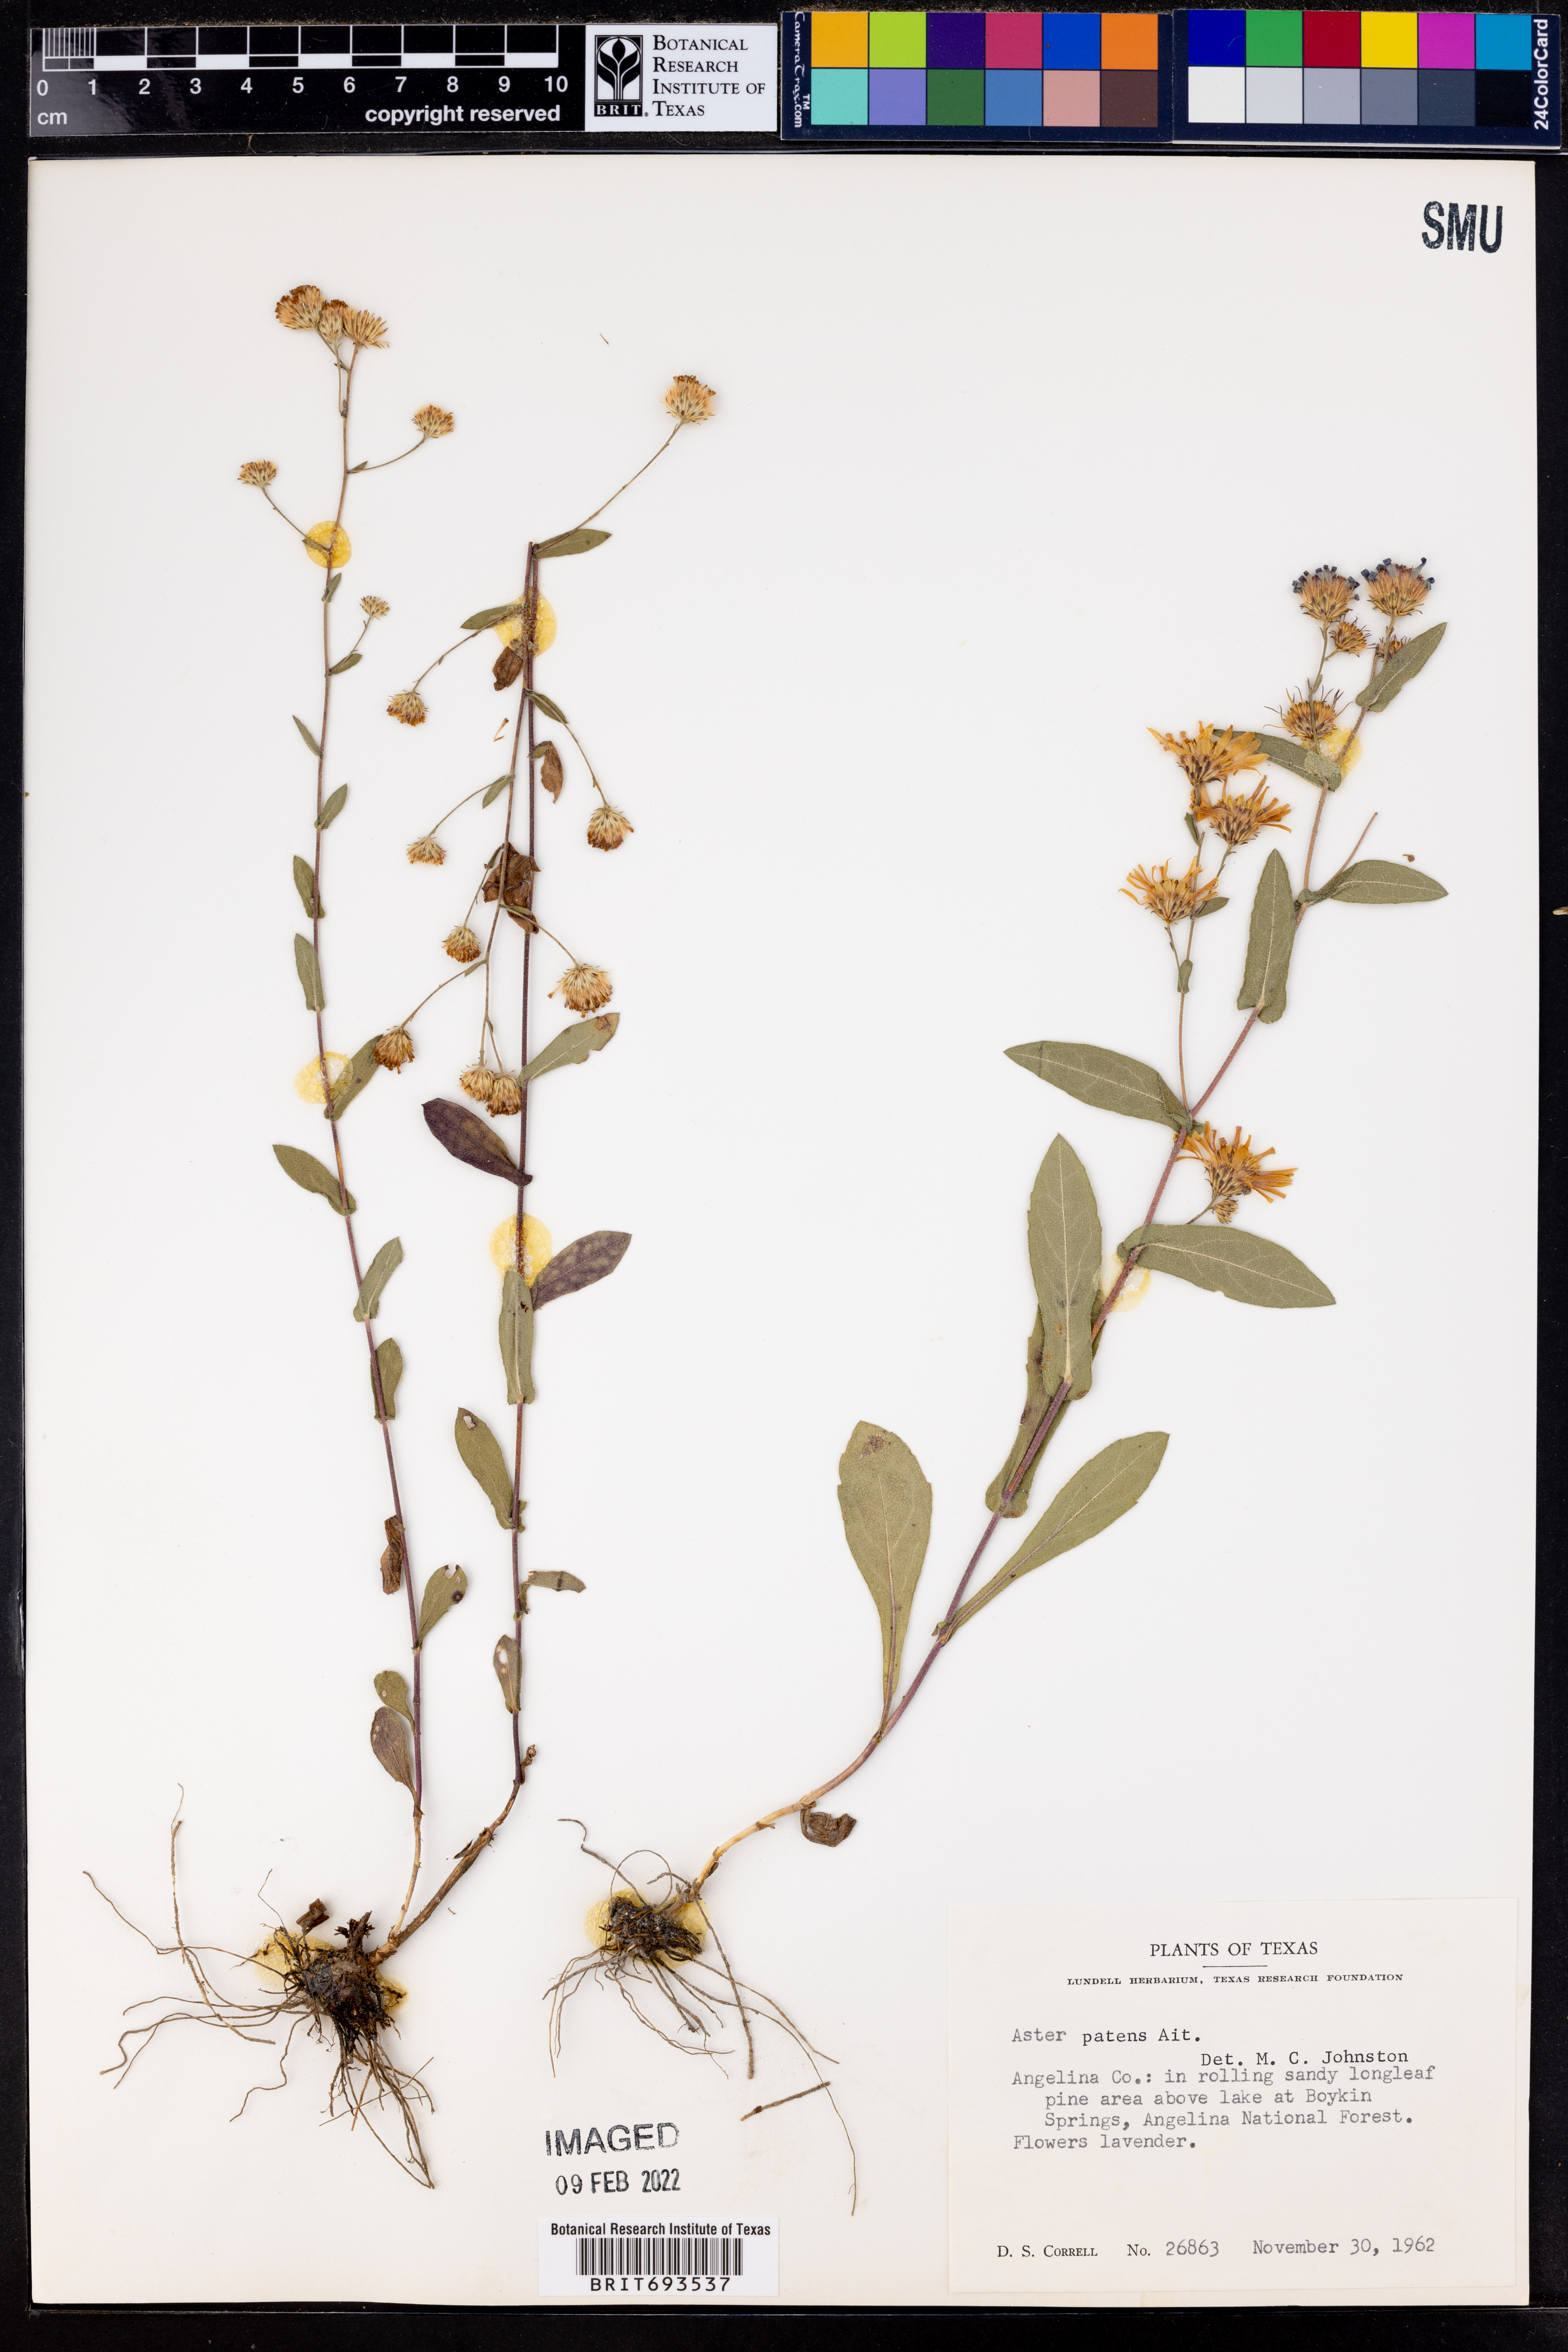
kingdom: Plantae
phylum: Tracheophyta
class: Magnoliopsida
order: Asterales
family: Asteraceae
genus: Symphyotrichum
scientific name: Symphyotrichum patens
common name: Late purple aster
